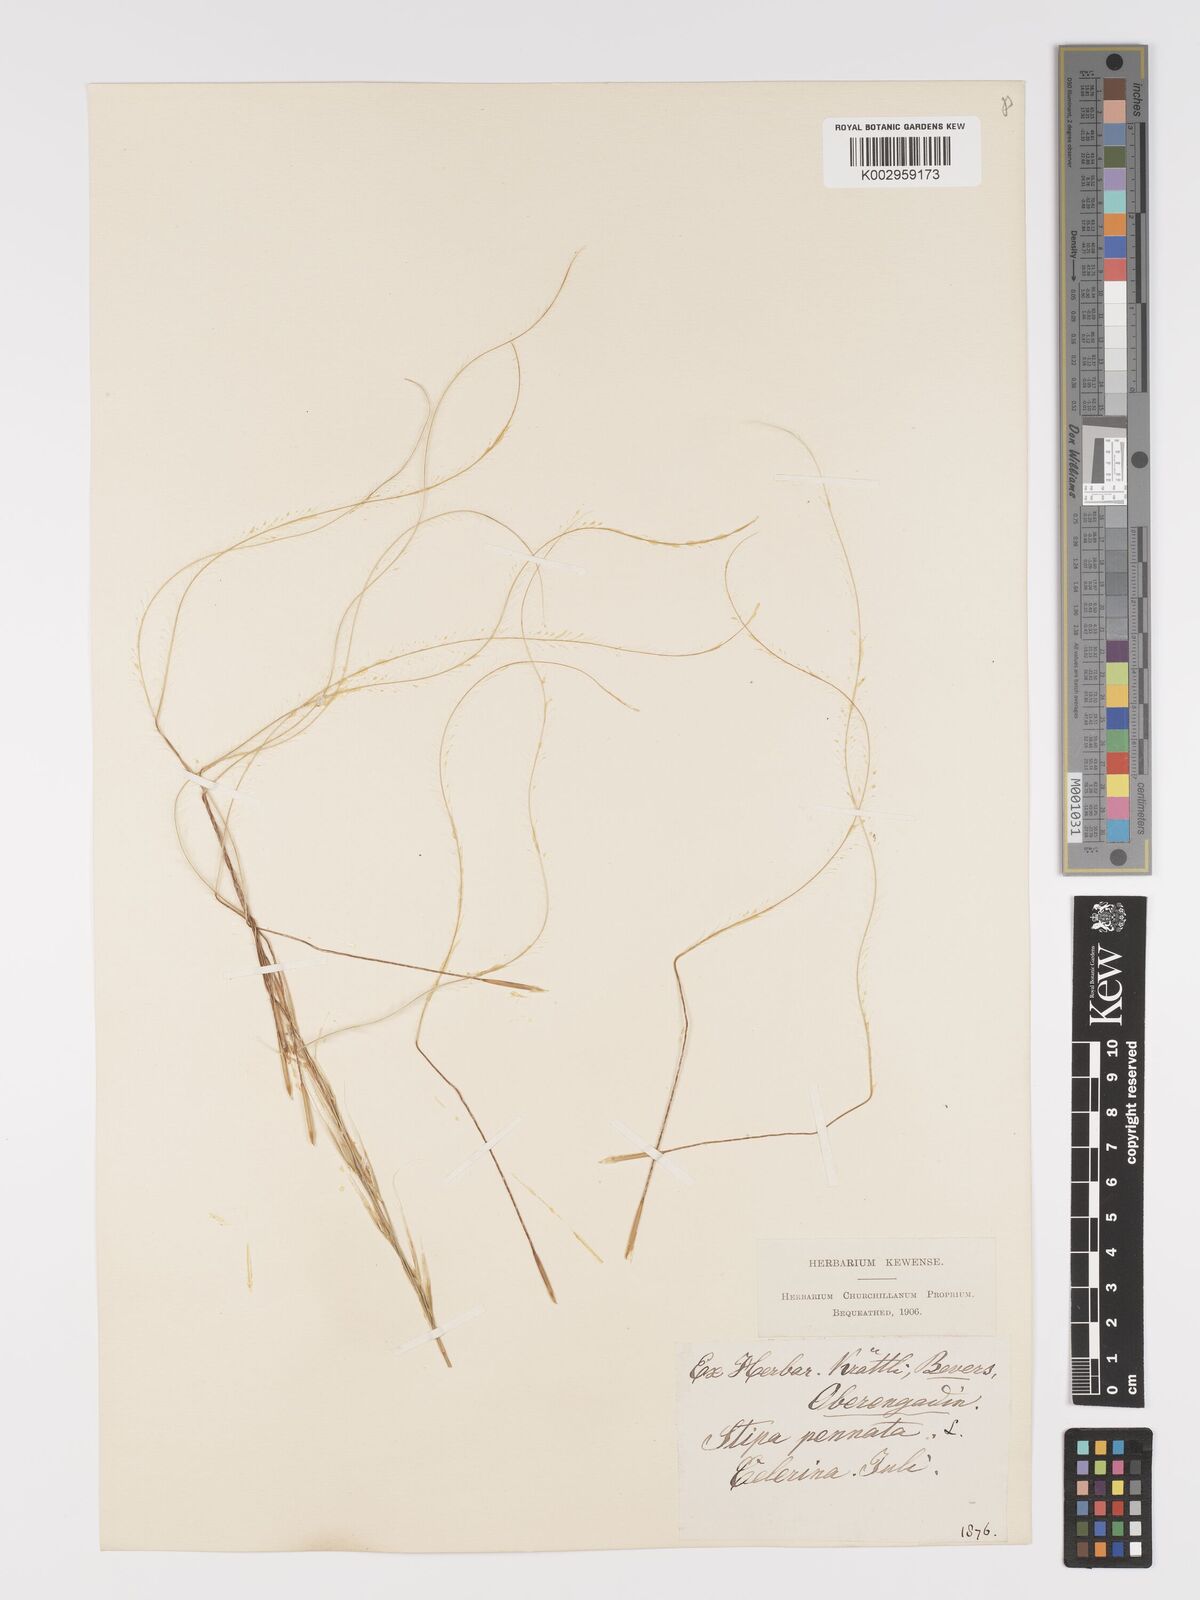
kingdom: Plantae
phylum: Tracheophyta
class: Liliopsida
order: Poales
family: Poaceae
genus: Stipa
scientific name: Stipa pennata
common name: European feather grass
